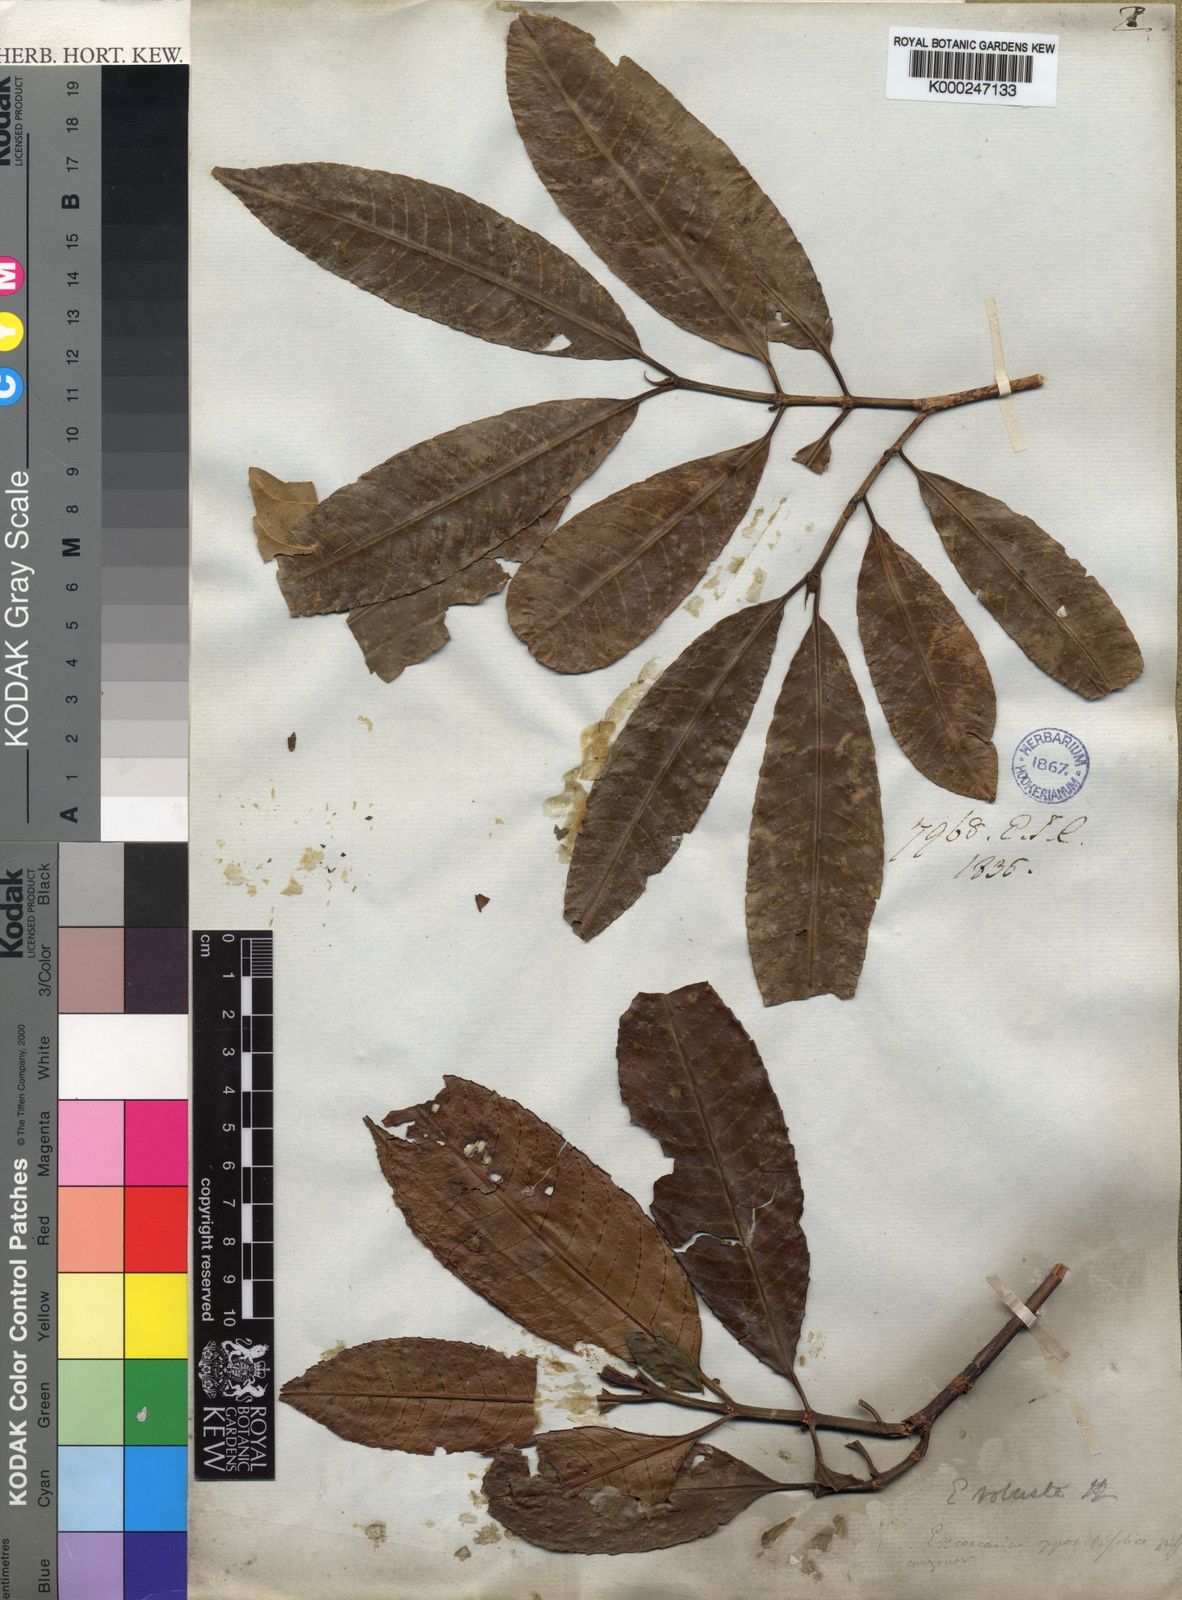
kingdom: Plantae
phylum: Tracheophyta
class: Magnoliopsida
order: Malpighiales
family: Euphorbiaceae
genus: Excoecaria
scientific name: Excoecaria oppositifolia
